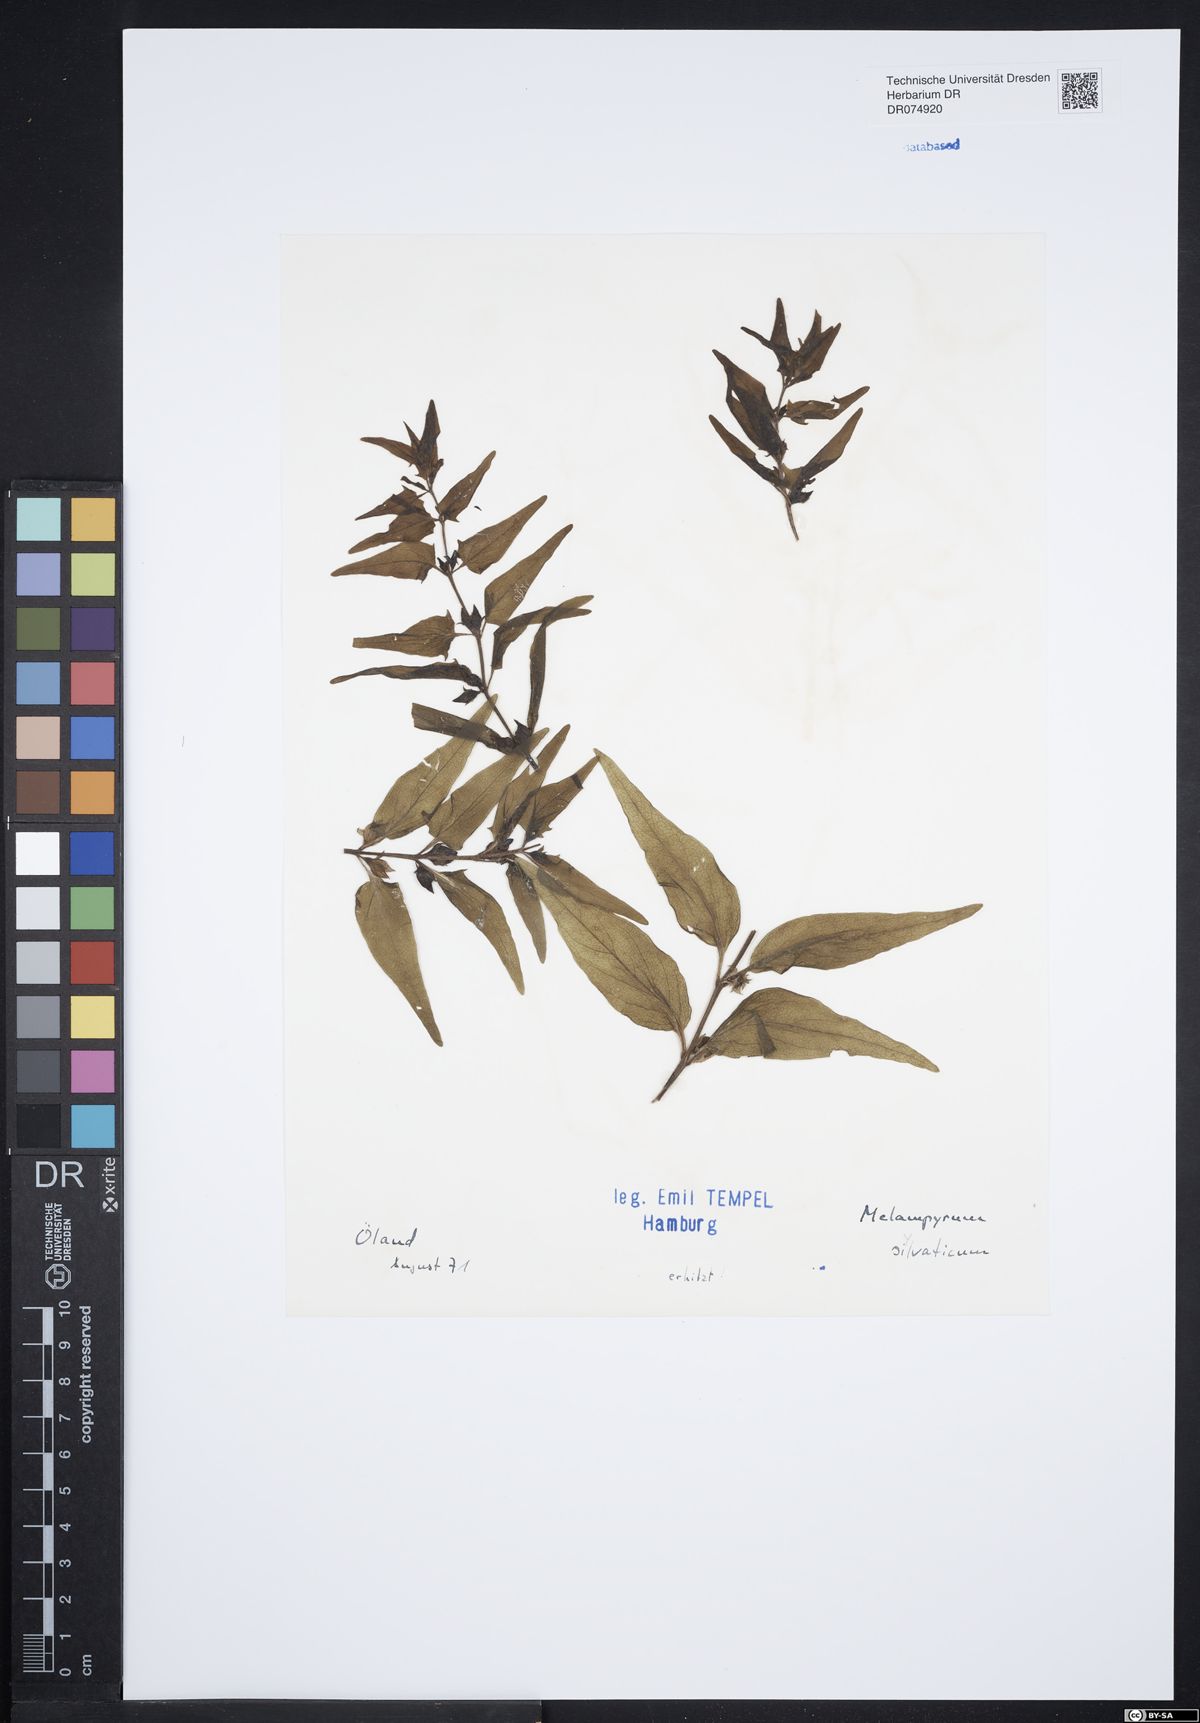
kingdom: Plantae
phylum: Tracheophyta
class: Magnoliopsida
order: Lamiales
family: Orobanchaceae
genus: Melampyrum
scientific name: Melampyrum sylvaticum
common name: Small cow-wheat
